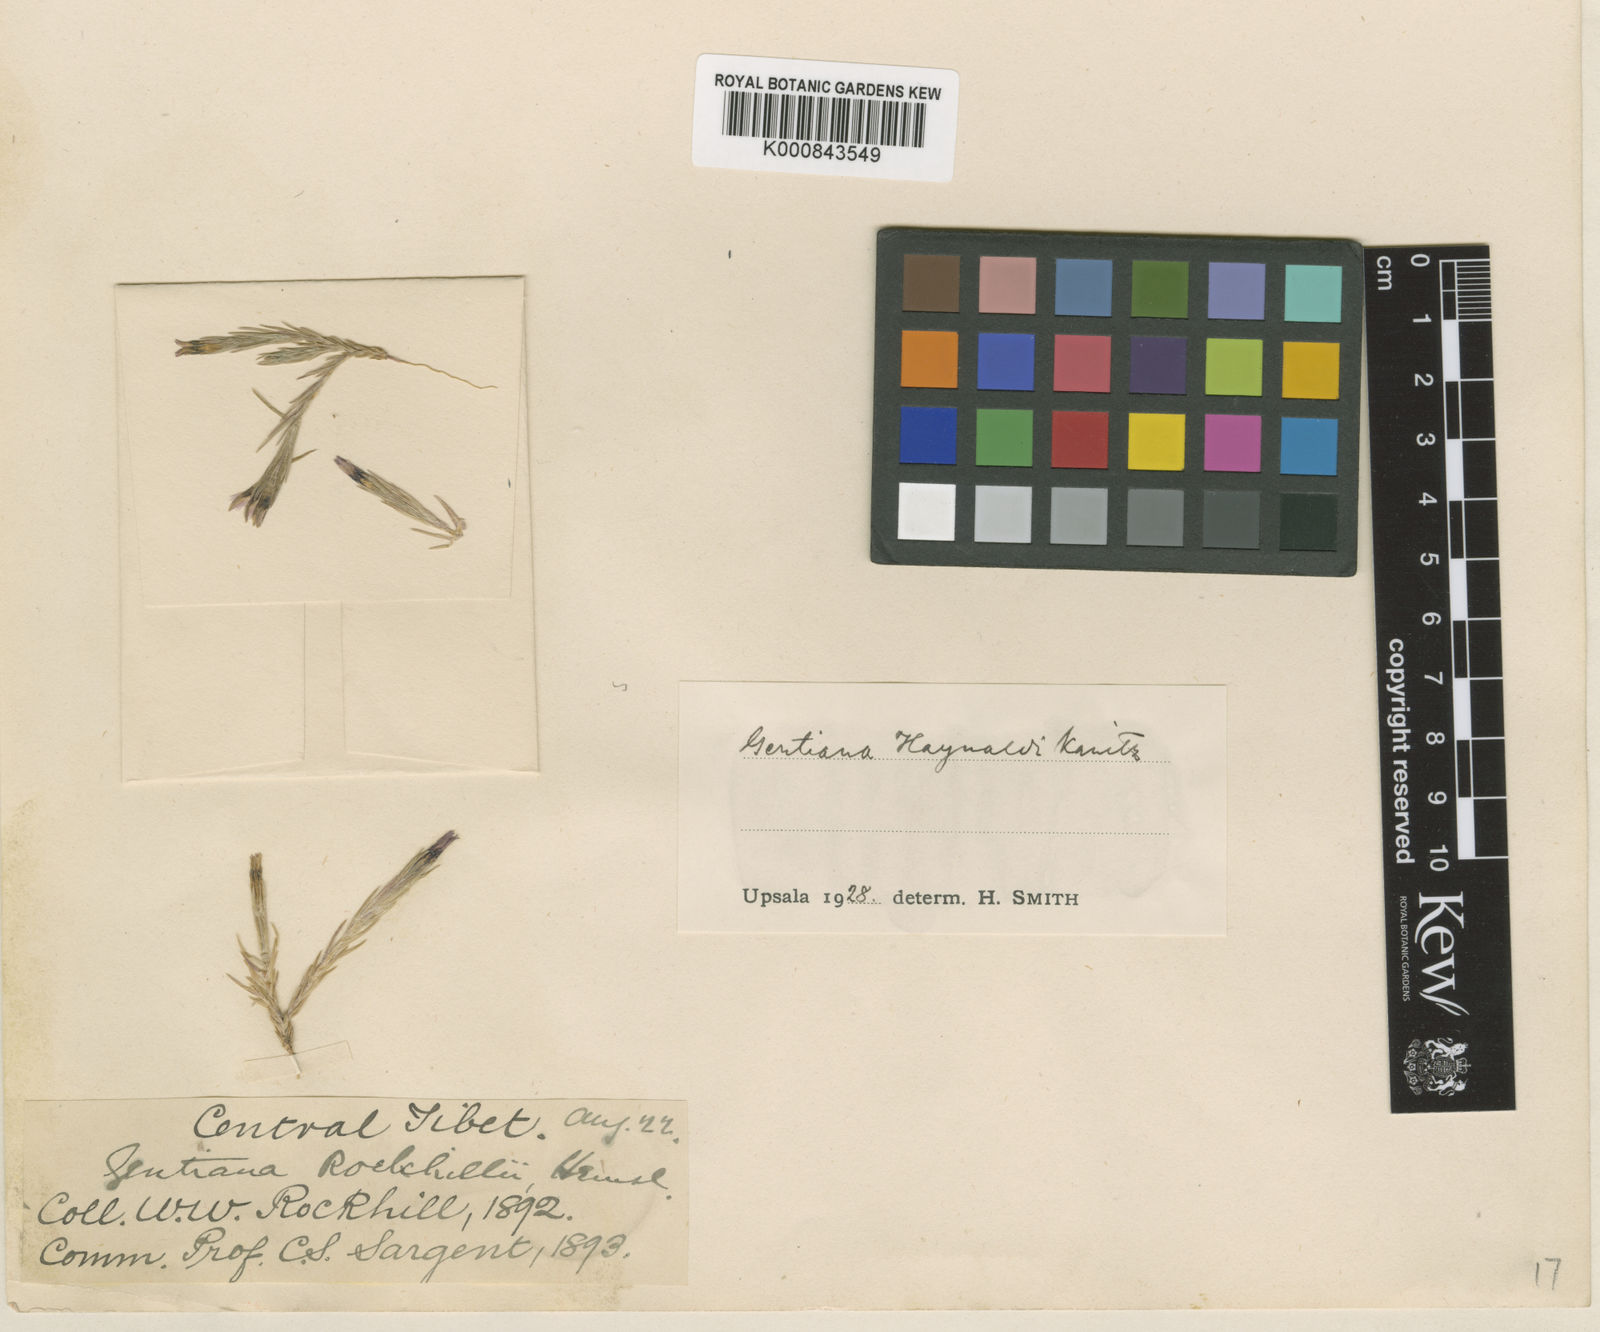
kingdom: Plantae
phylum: Tracheophyta
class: Magnoliopsida
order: Gentianales
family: Gentianaceae
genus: Gentiana
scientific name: Gentiana haynaldii
